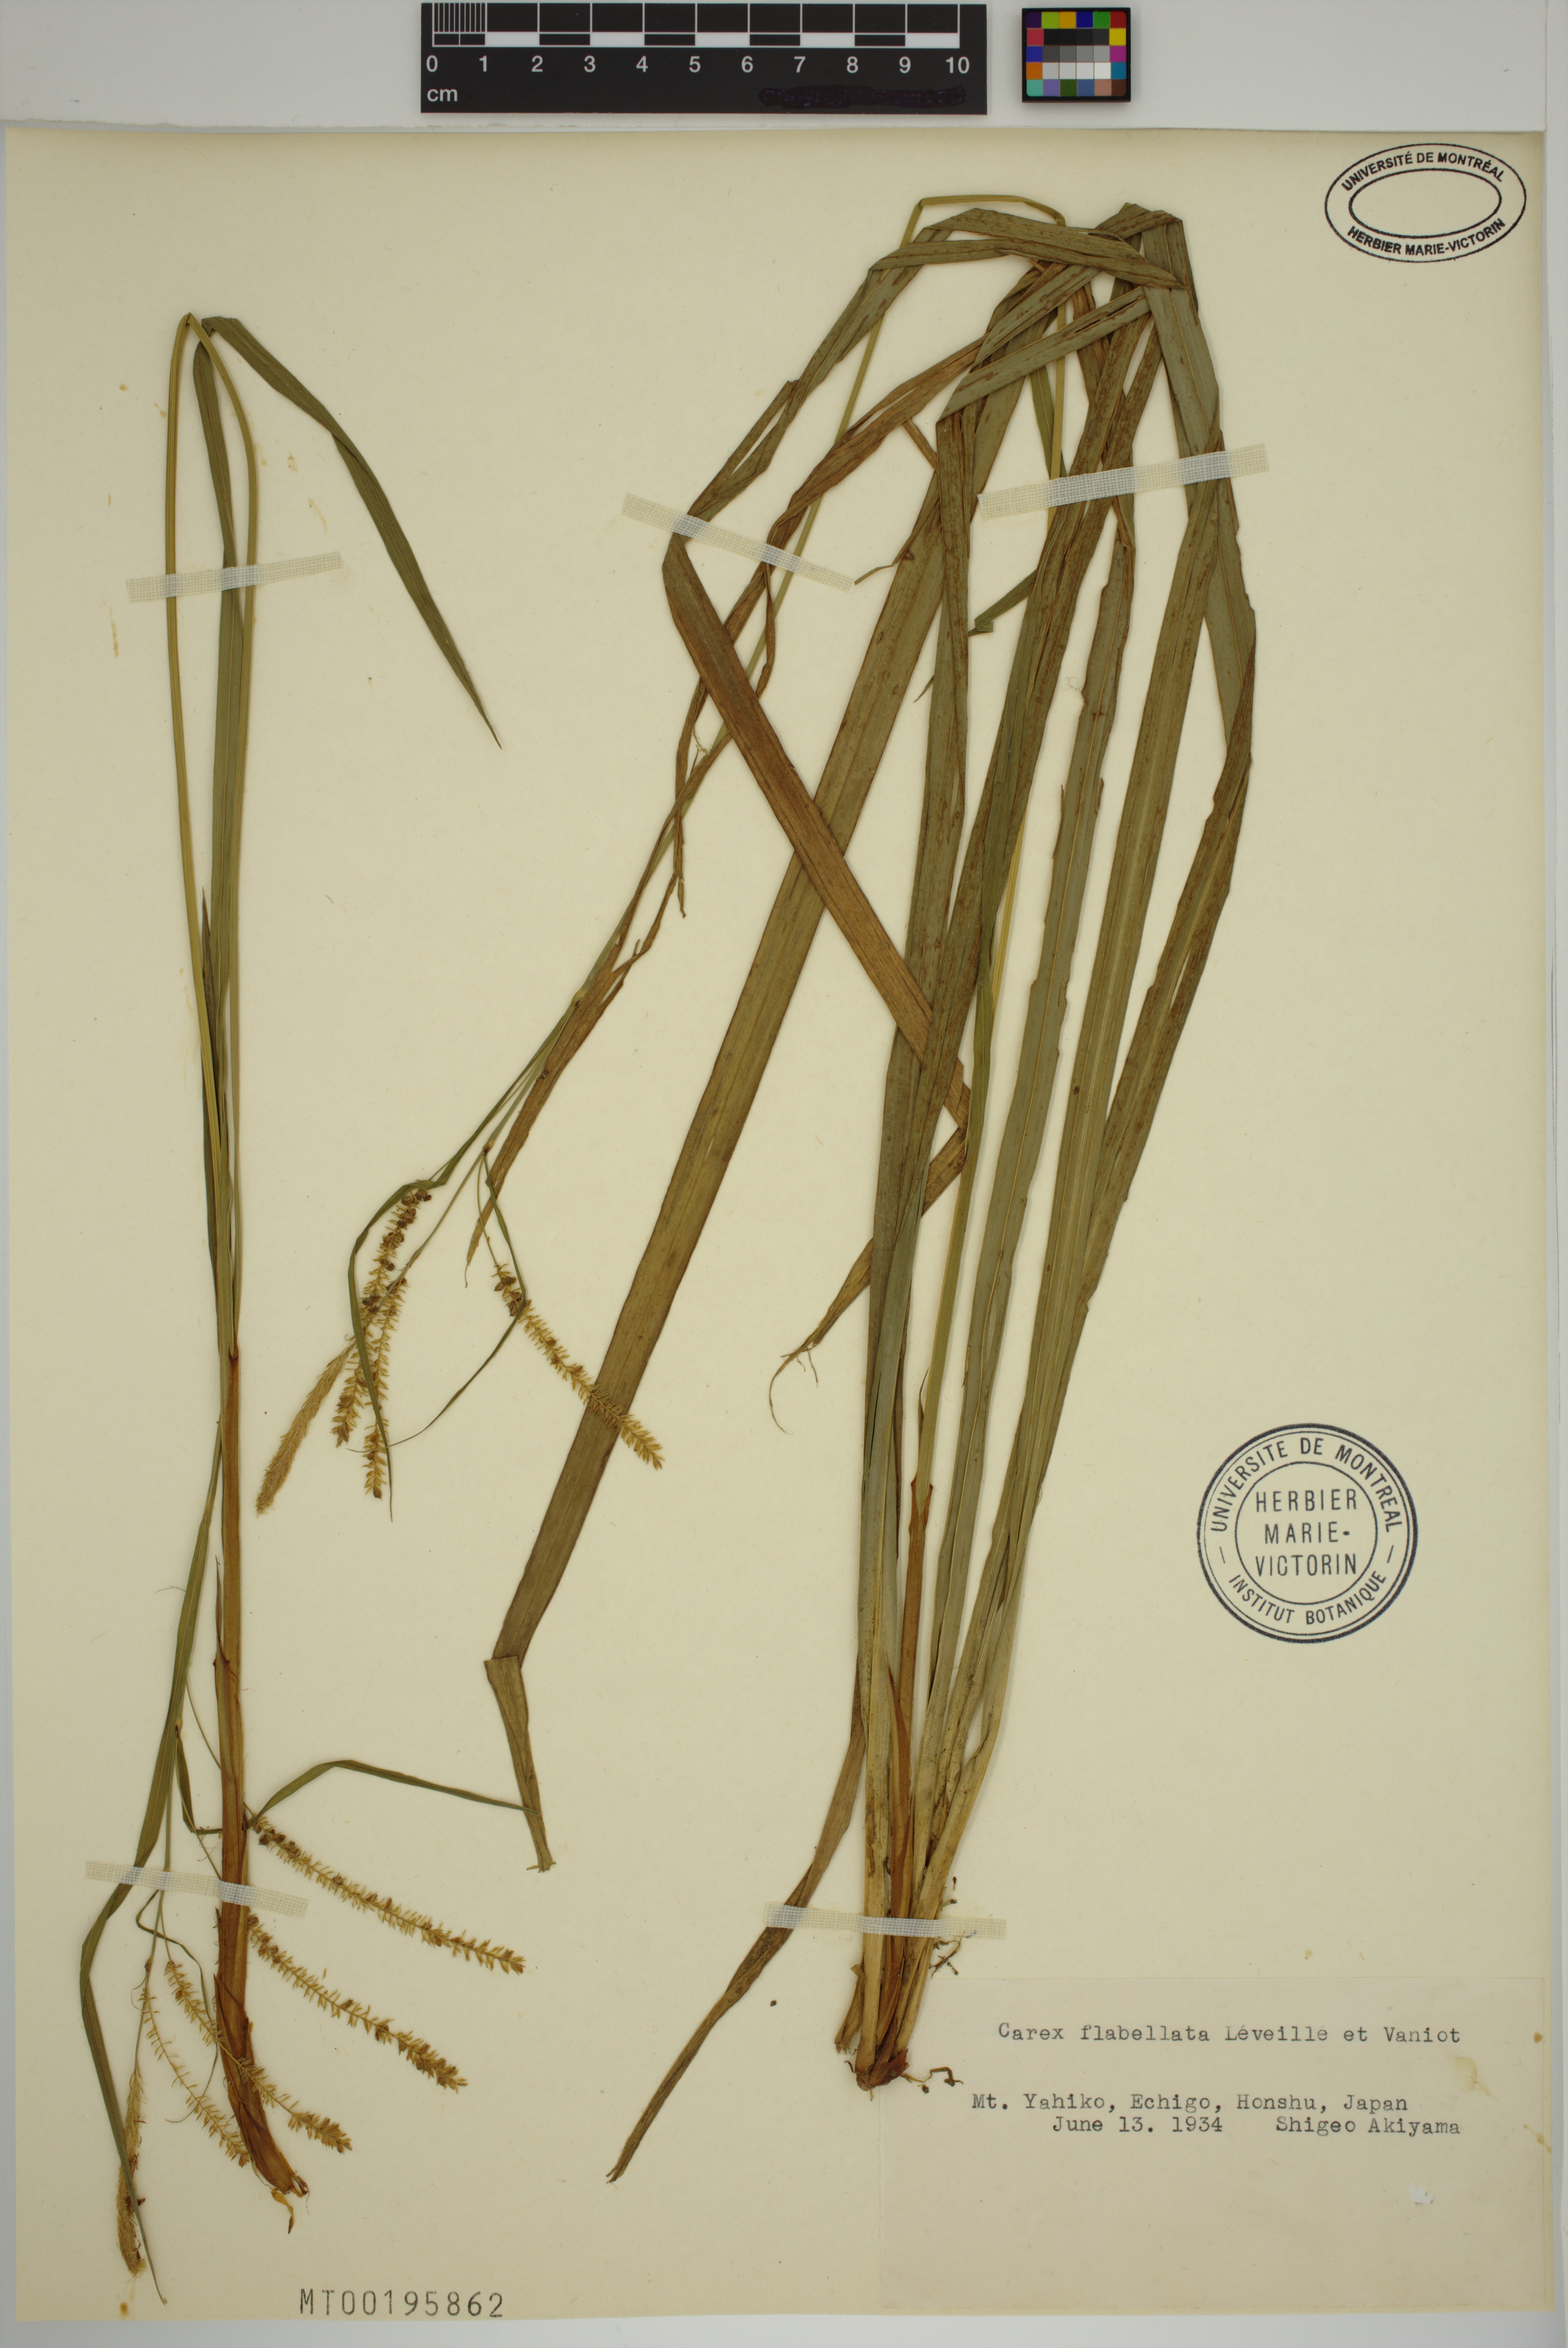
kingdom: Plantae
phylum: Tracheophyta
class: Liliopsida
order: Poales
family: Cyperaceae
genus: Carex
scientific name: Carex flabellata
